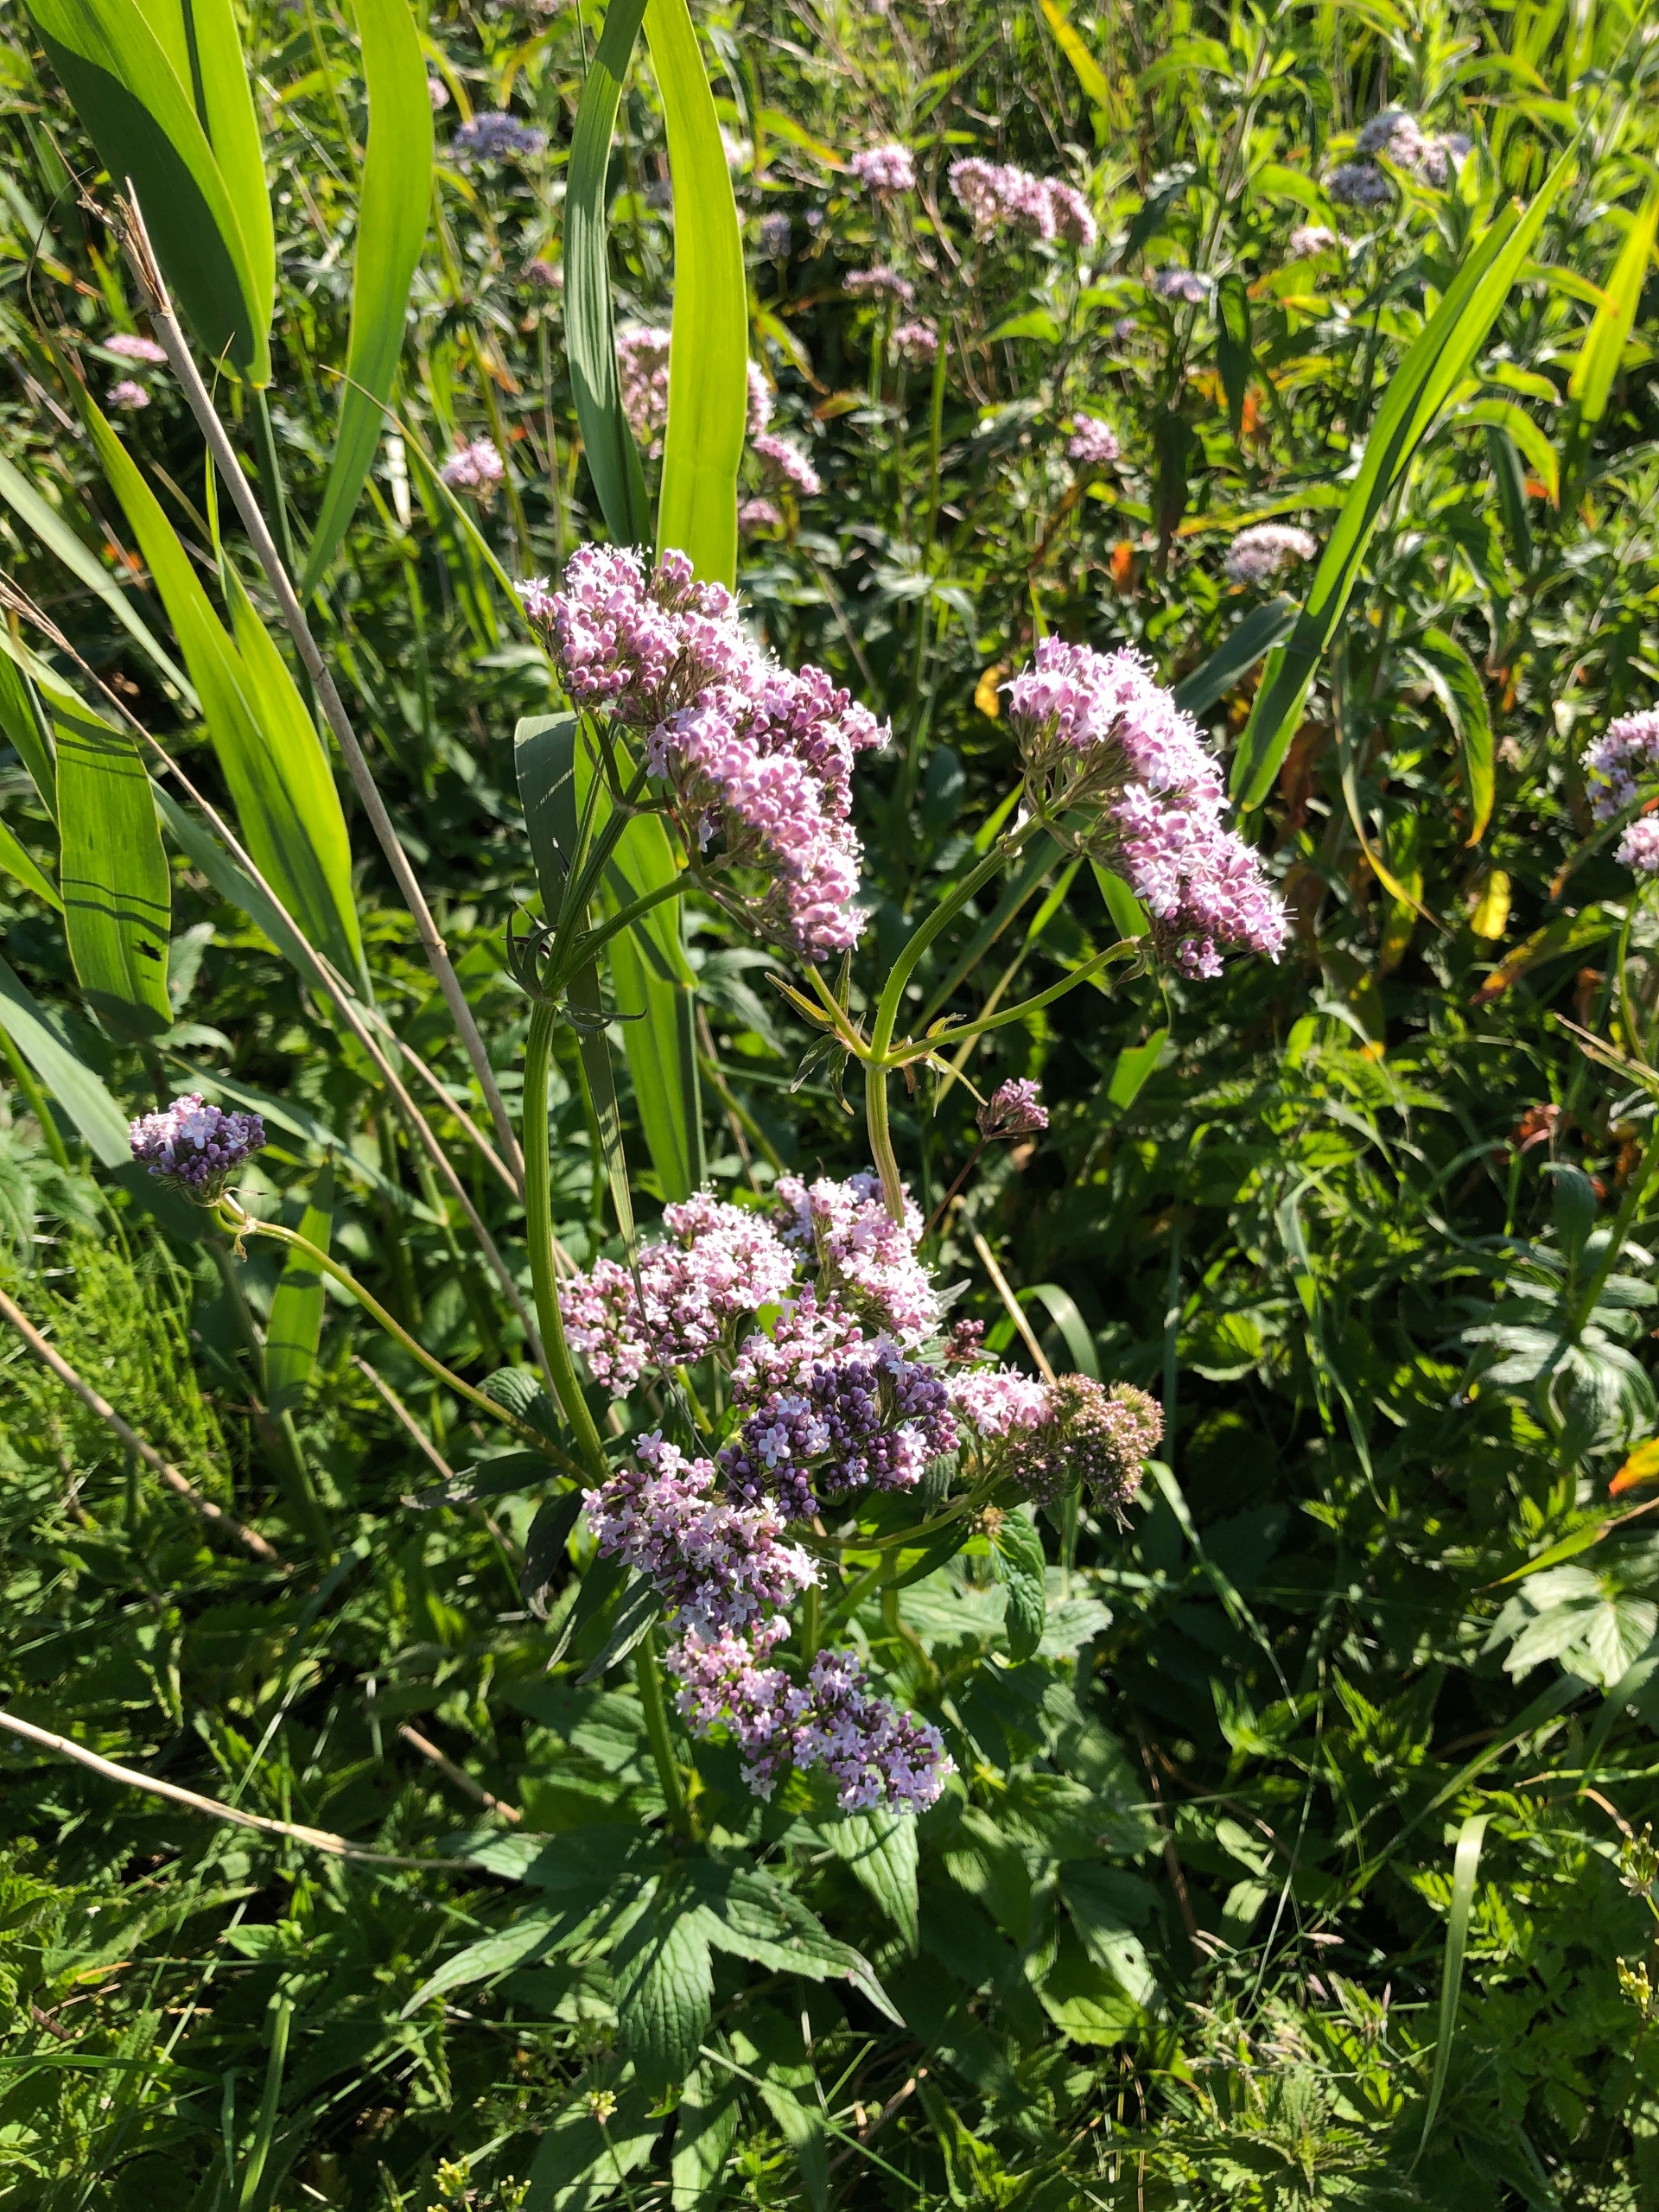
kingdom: Plantae
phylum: Tracheophyta
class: Magnoliopsida
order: Dipsacales
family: Caprifoliaceae
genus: Valeriana
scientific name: Valeriana sambucifolia
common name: Hyldebladet baldrian
